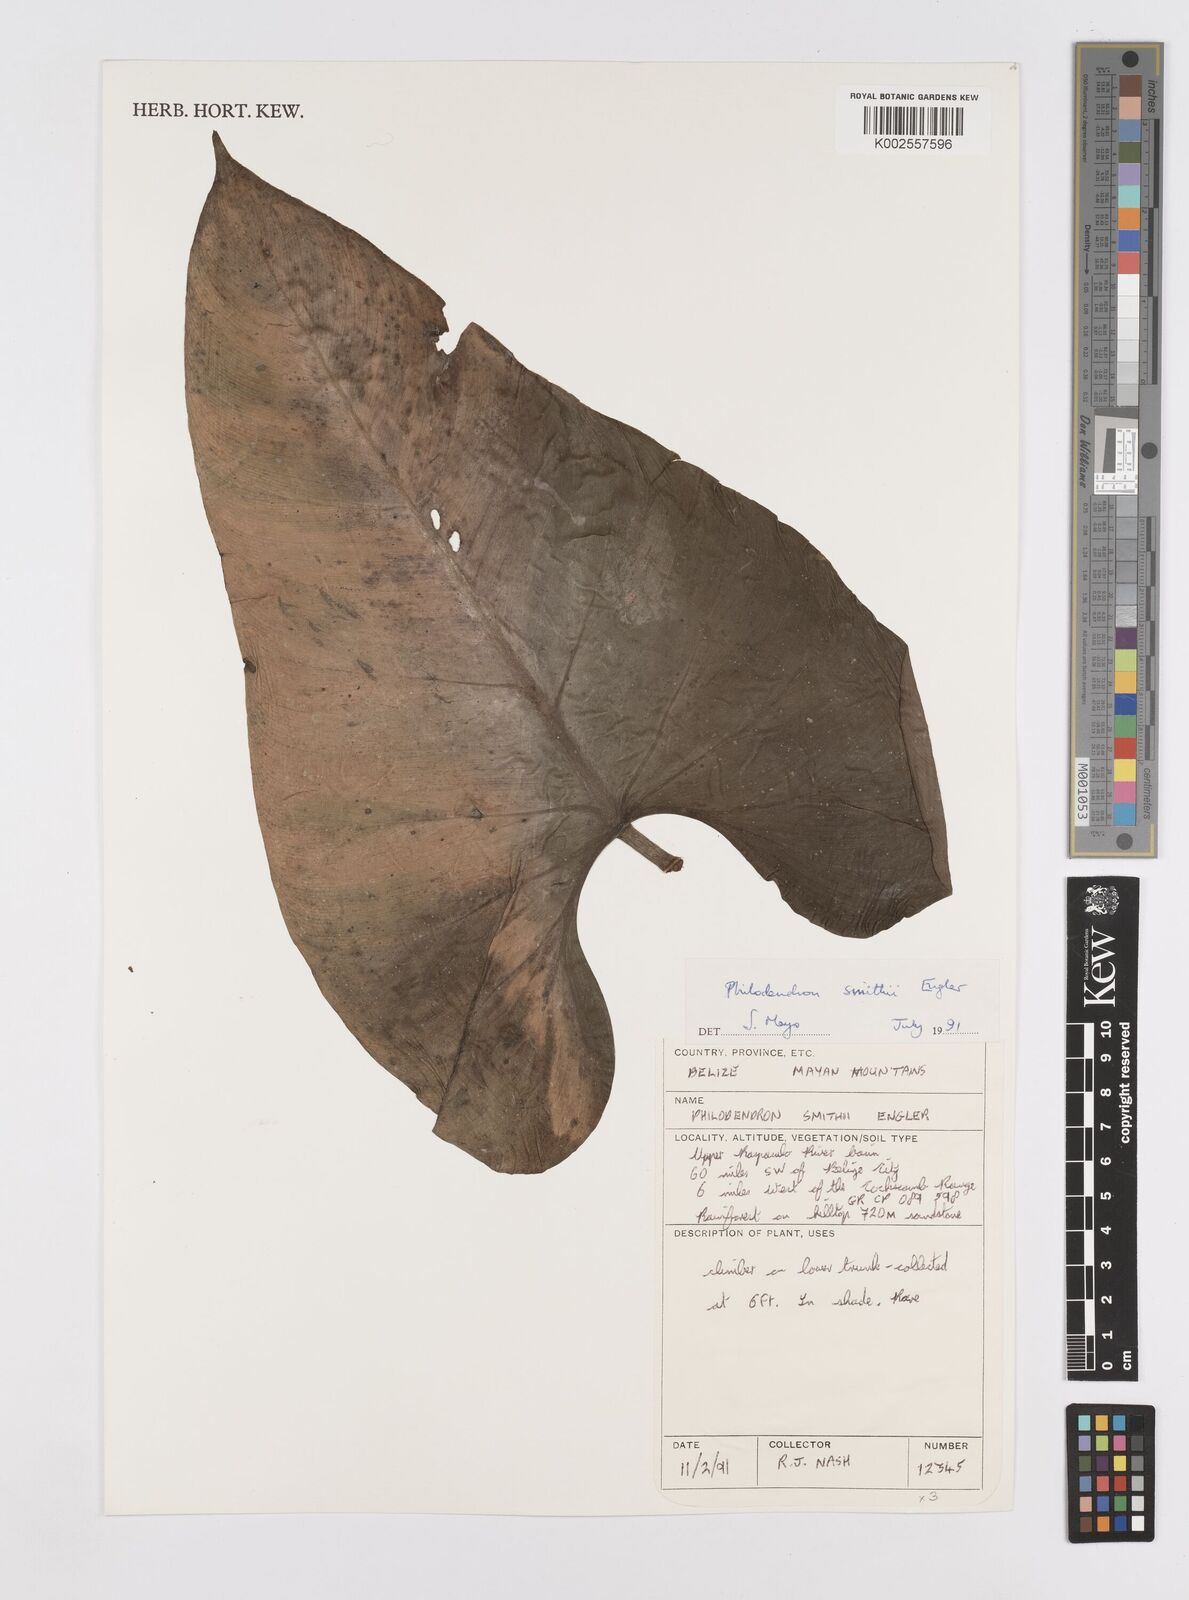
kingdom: Plantae
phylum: Tracheophyta
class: Liliopsida
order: Alismatales
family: Araceae
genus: Philodendron
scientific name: Philodendron smithii
